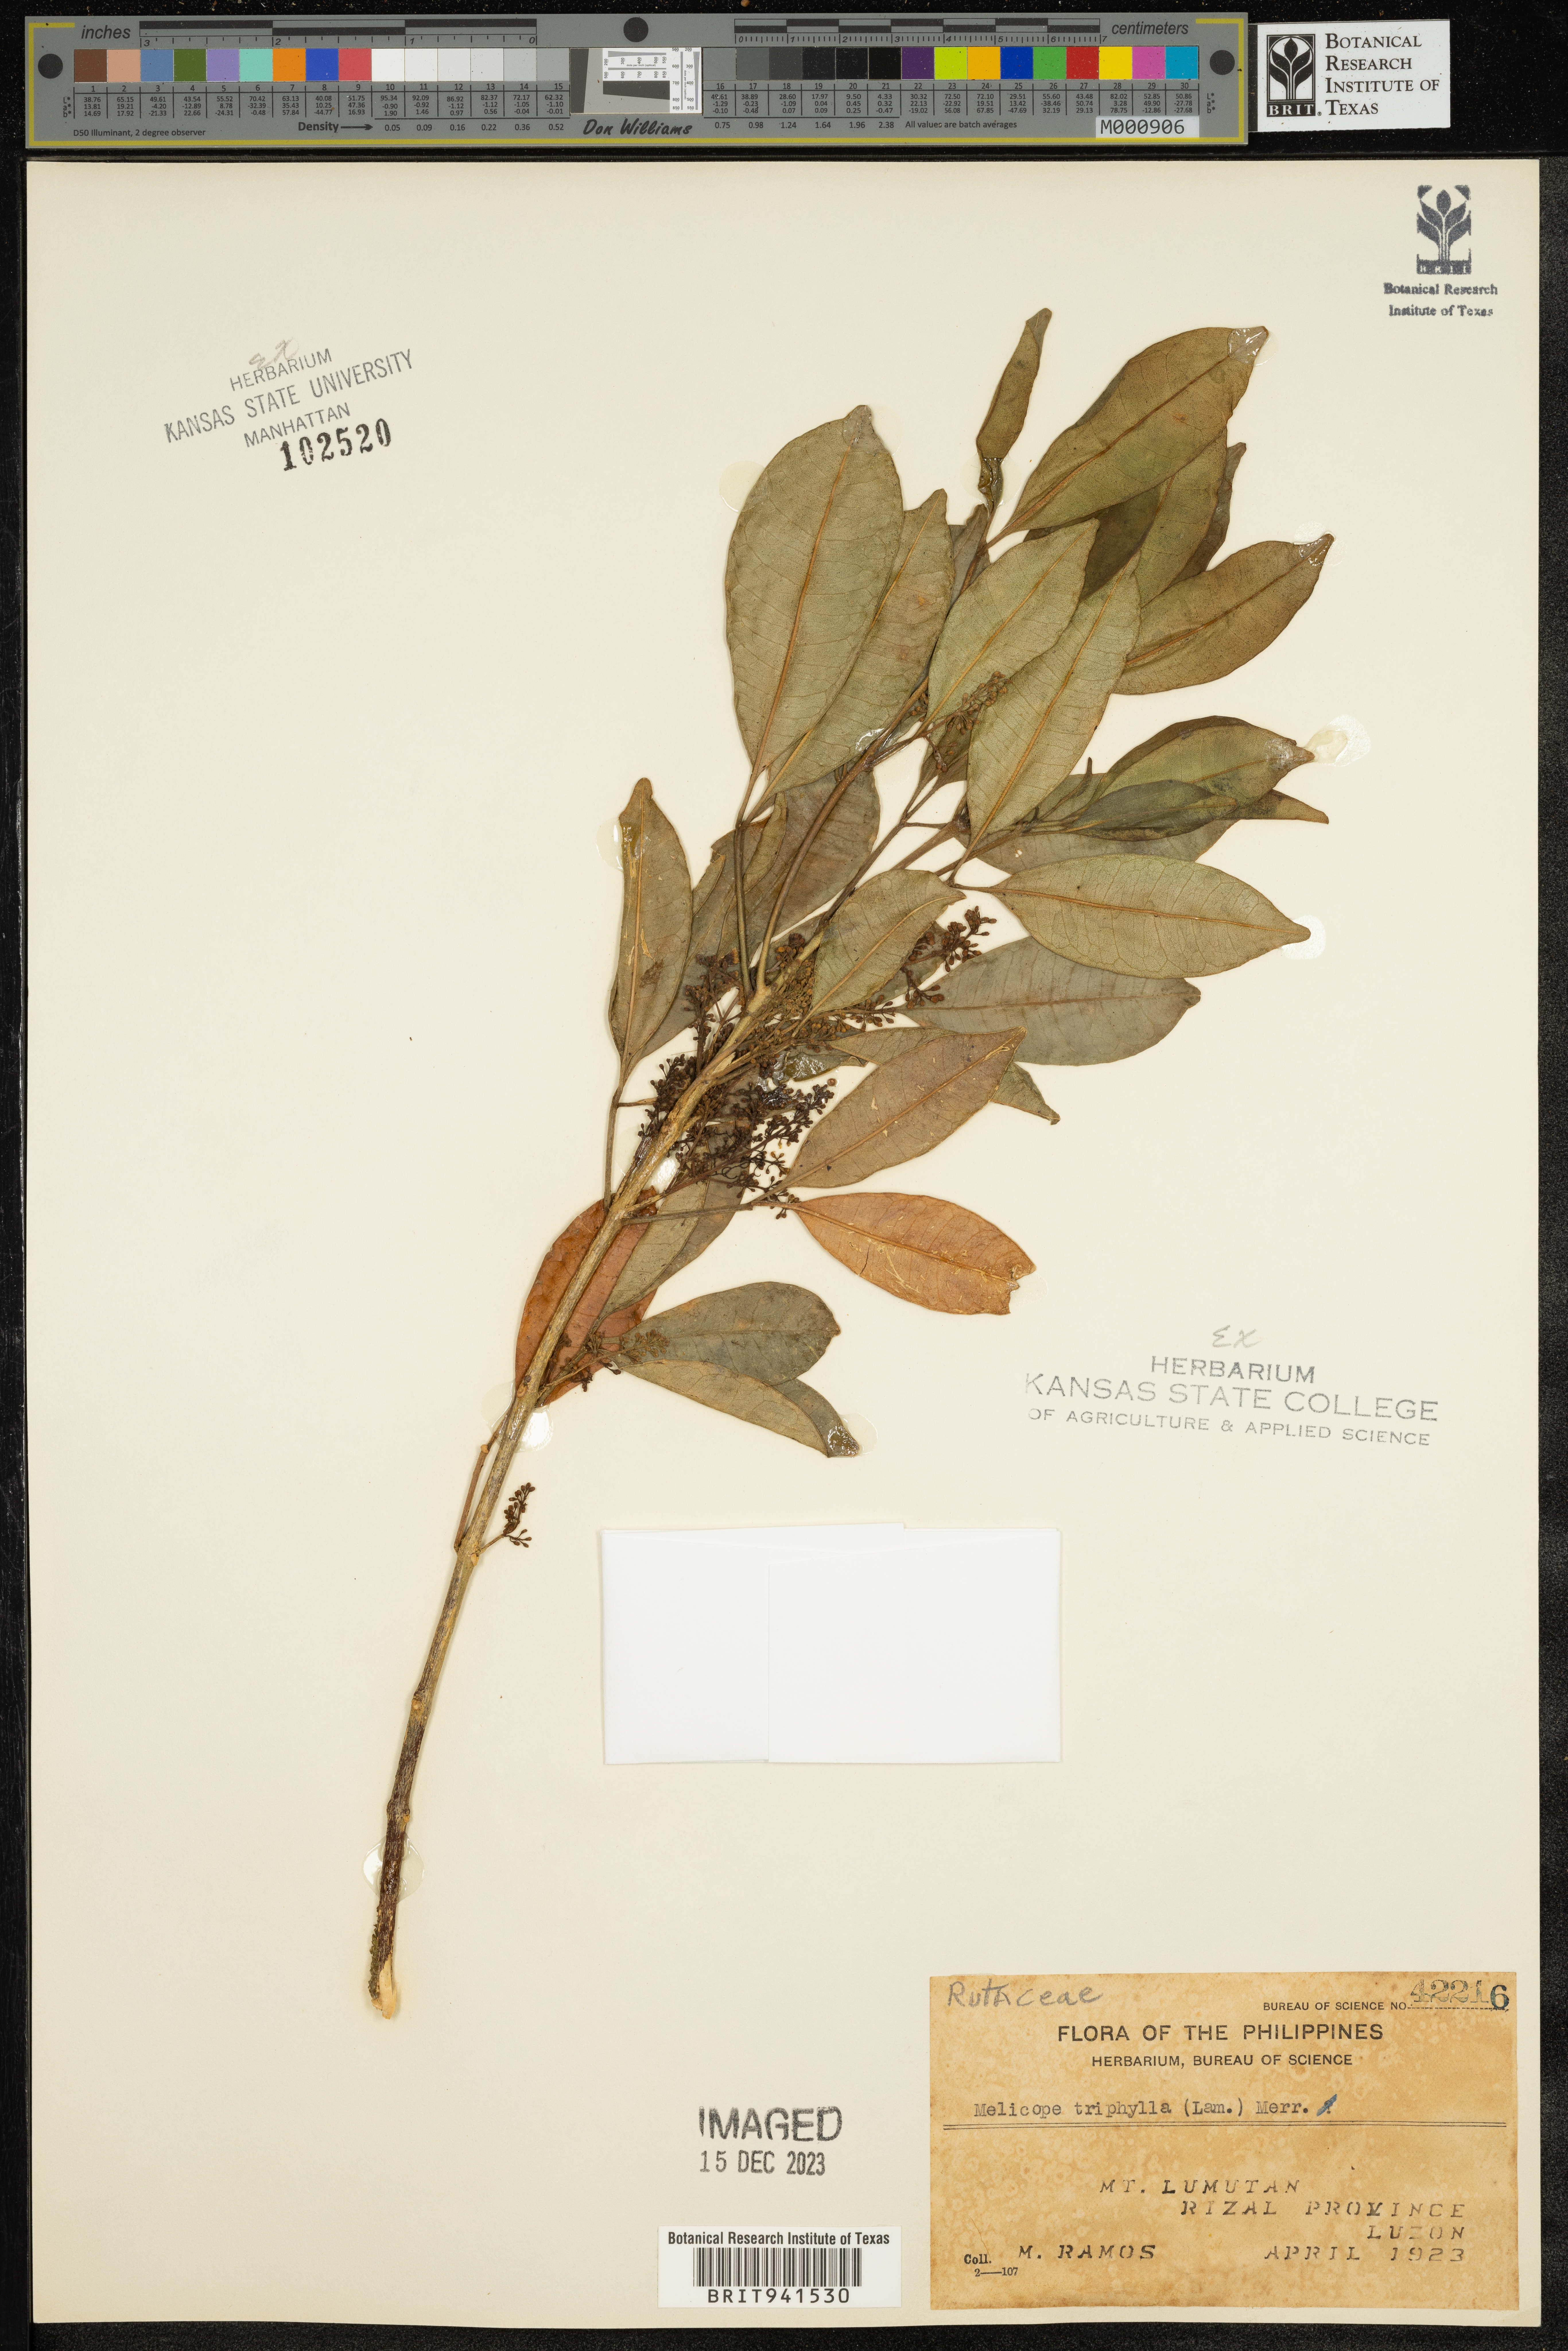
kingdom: Plantae
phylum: Tracheophyta
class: Magnoliopsida
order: Sapindales
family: Rutaceae
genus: Melicope
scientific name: Melicope triphylla
